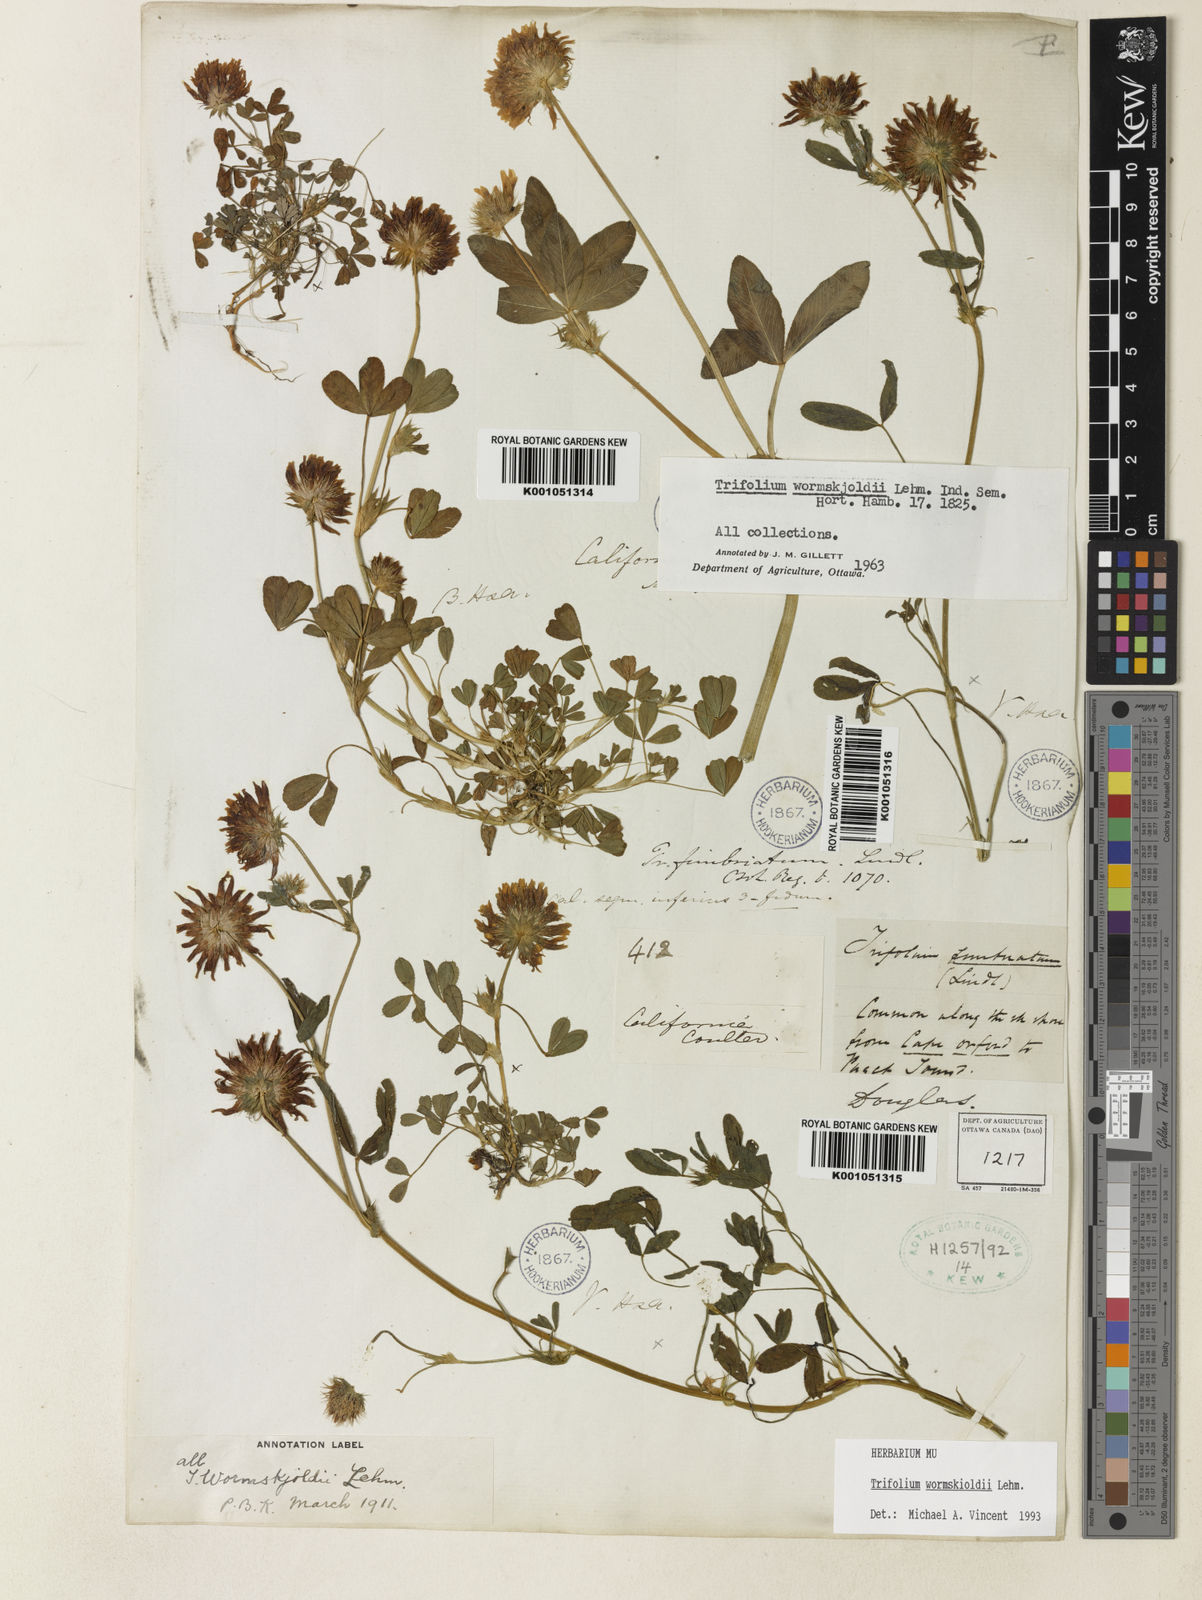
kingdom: Plantae
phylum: Tracheophyta
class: Magnoliopsida
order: Fabales
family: Fabaceae
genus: Trifolium
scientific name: Trifolium willdenovii
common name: Tomcat clover
